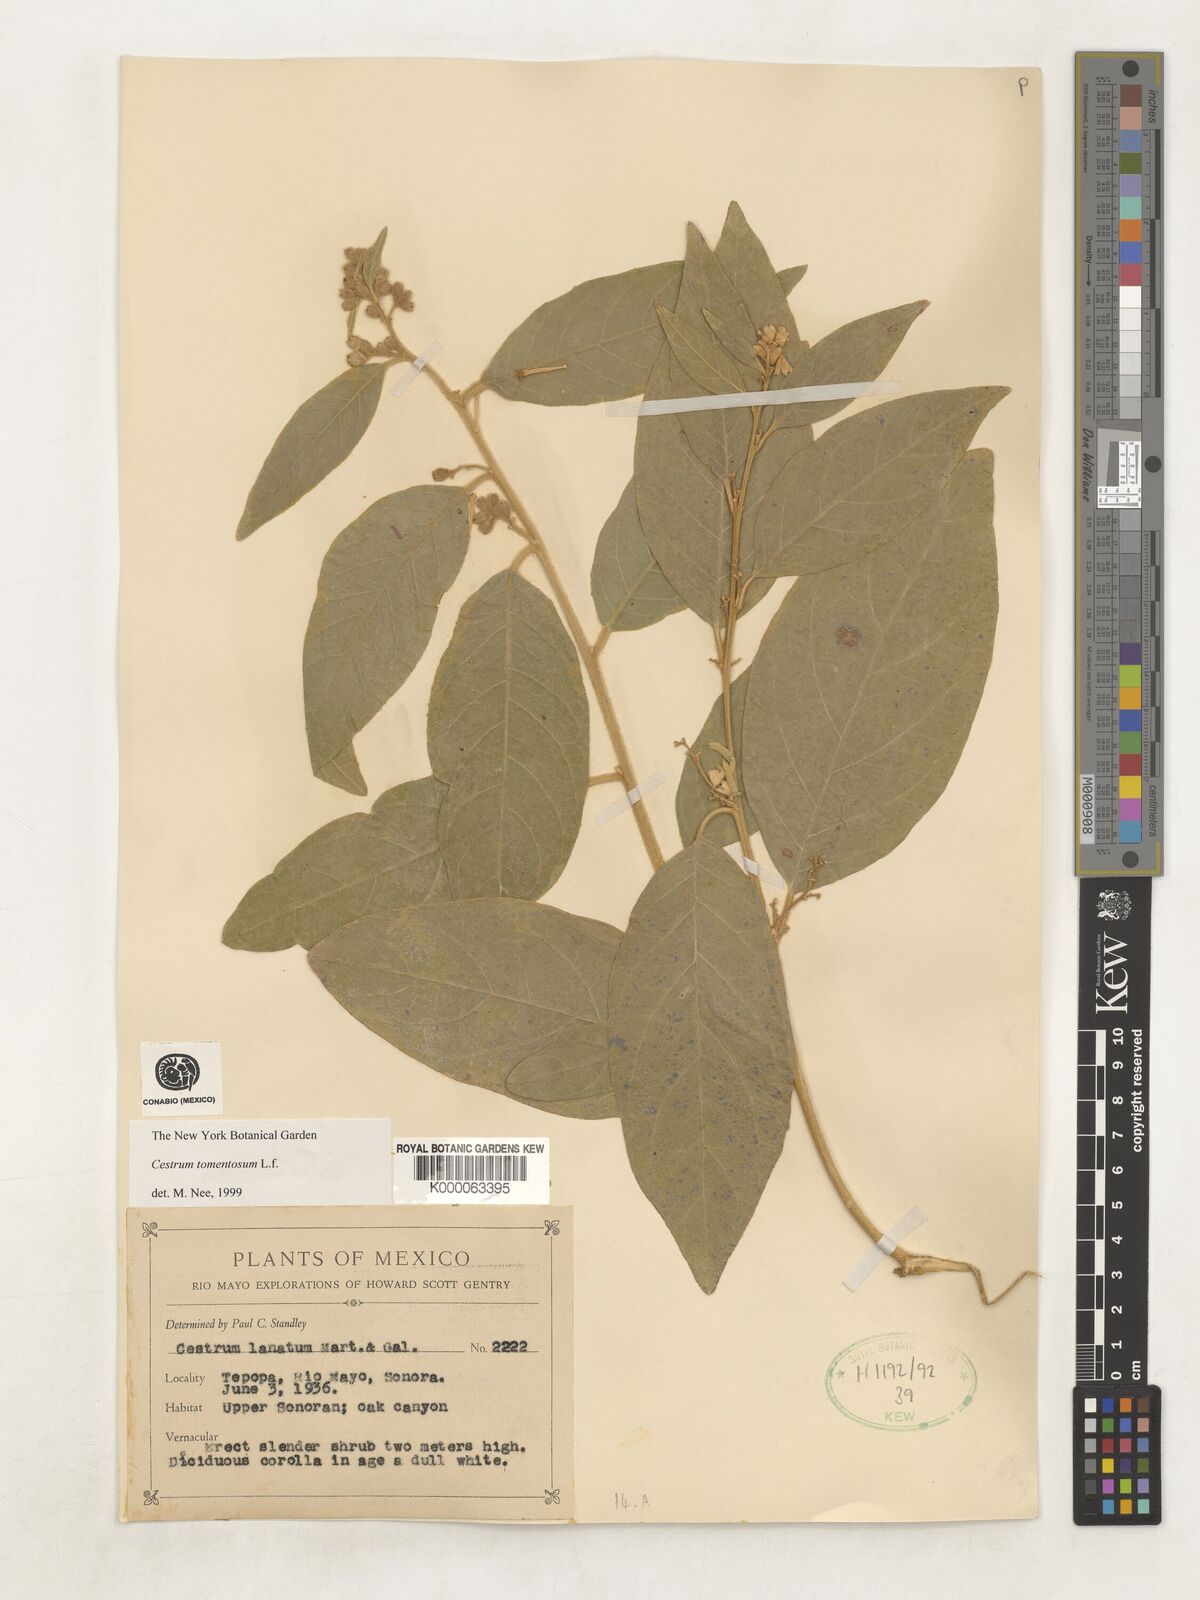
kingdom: Plantae
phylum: Tracheophyta
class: Magnoliopsida
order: Solanales
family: Solanaceae
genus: Cestrum
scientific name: Cestrum tomentosum
